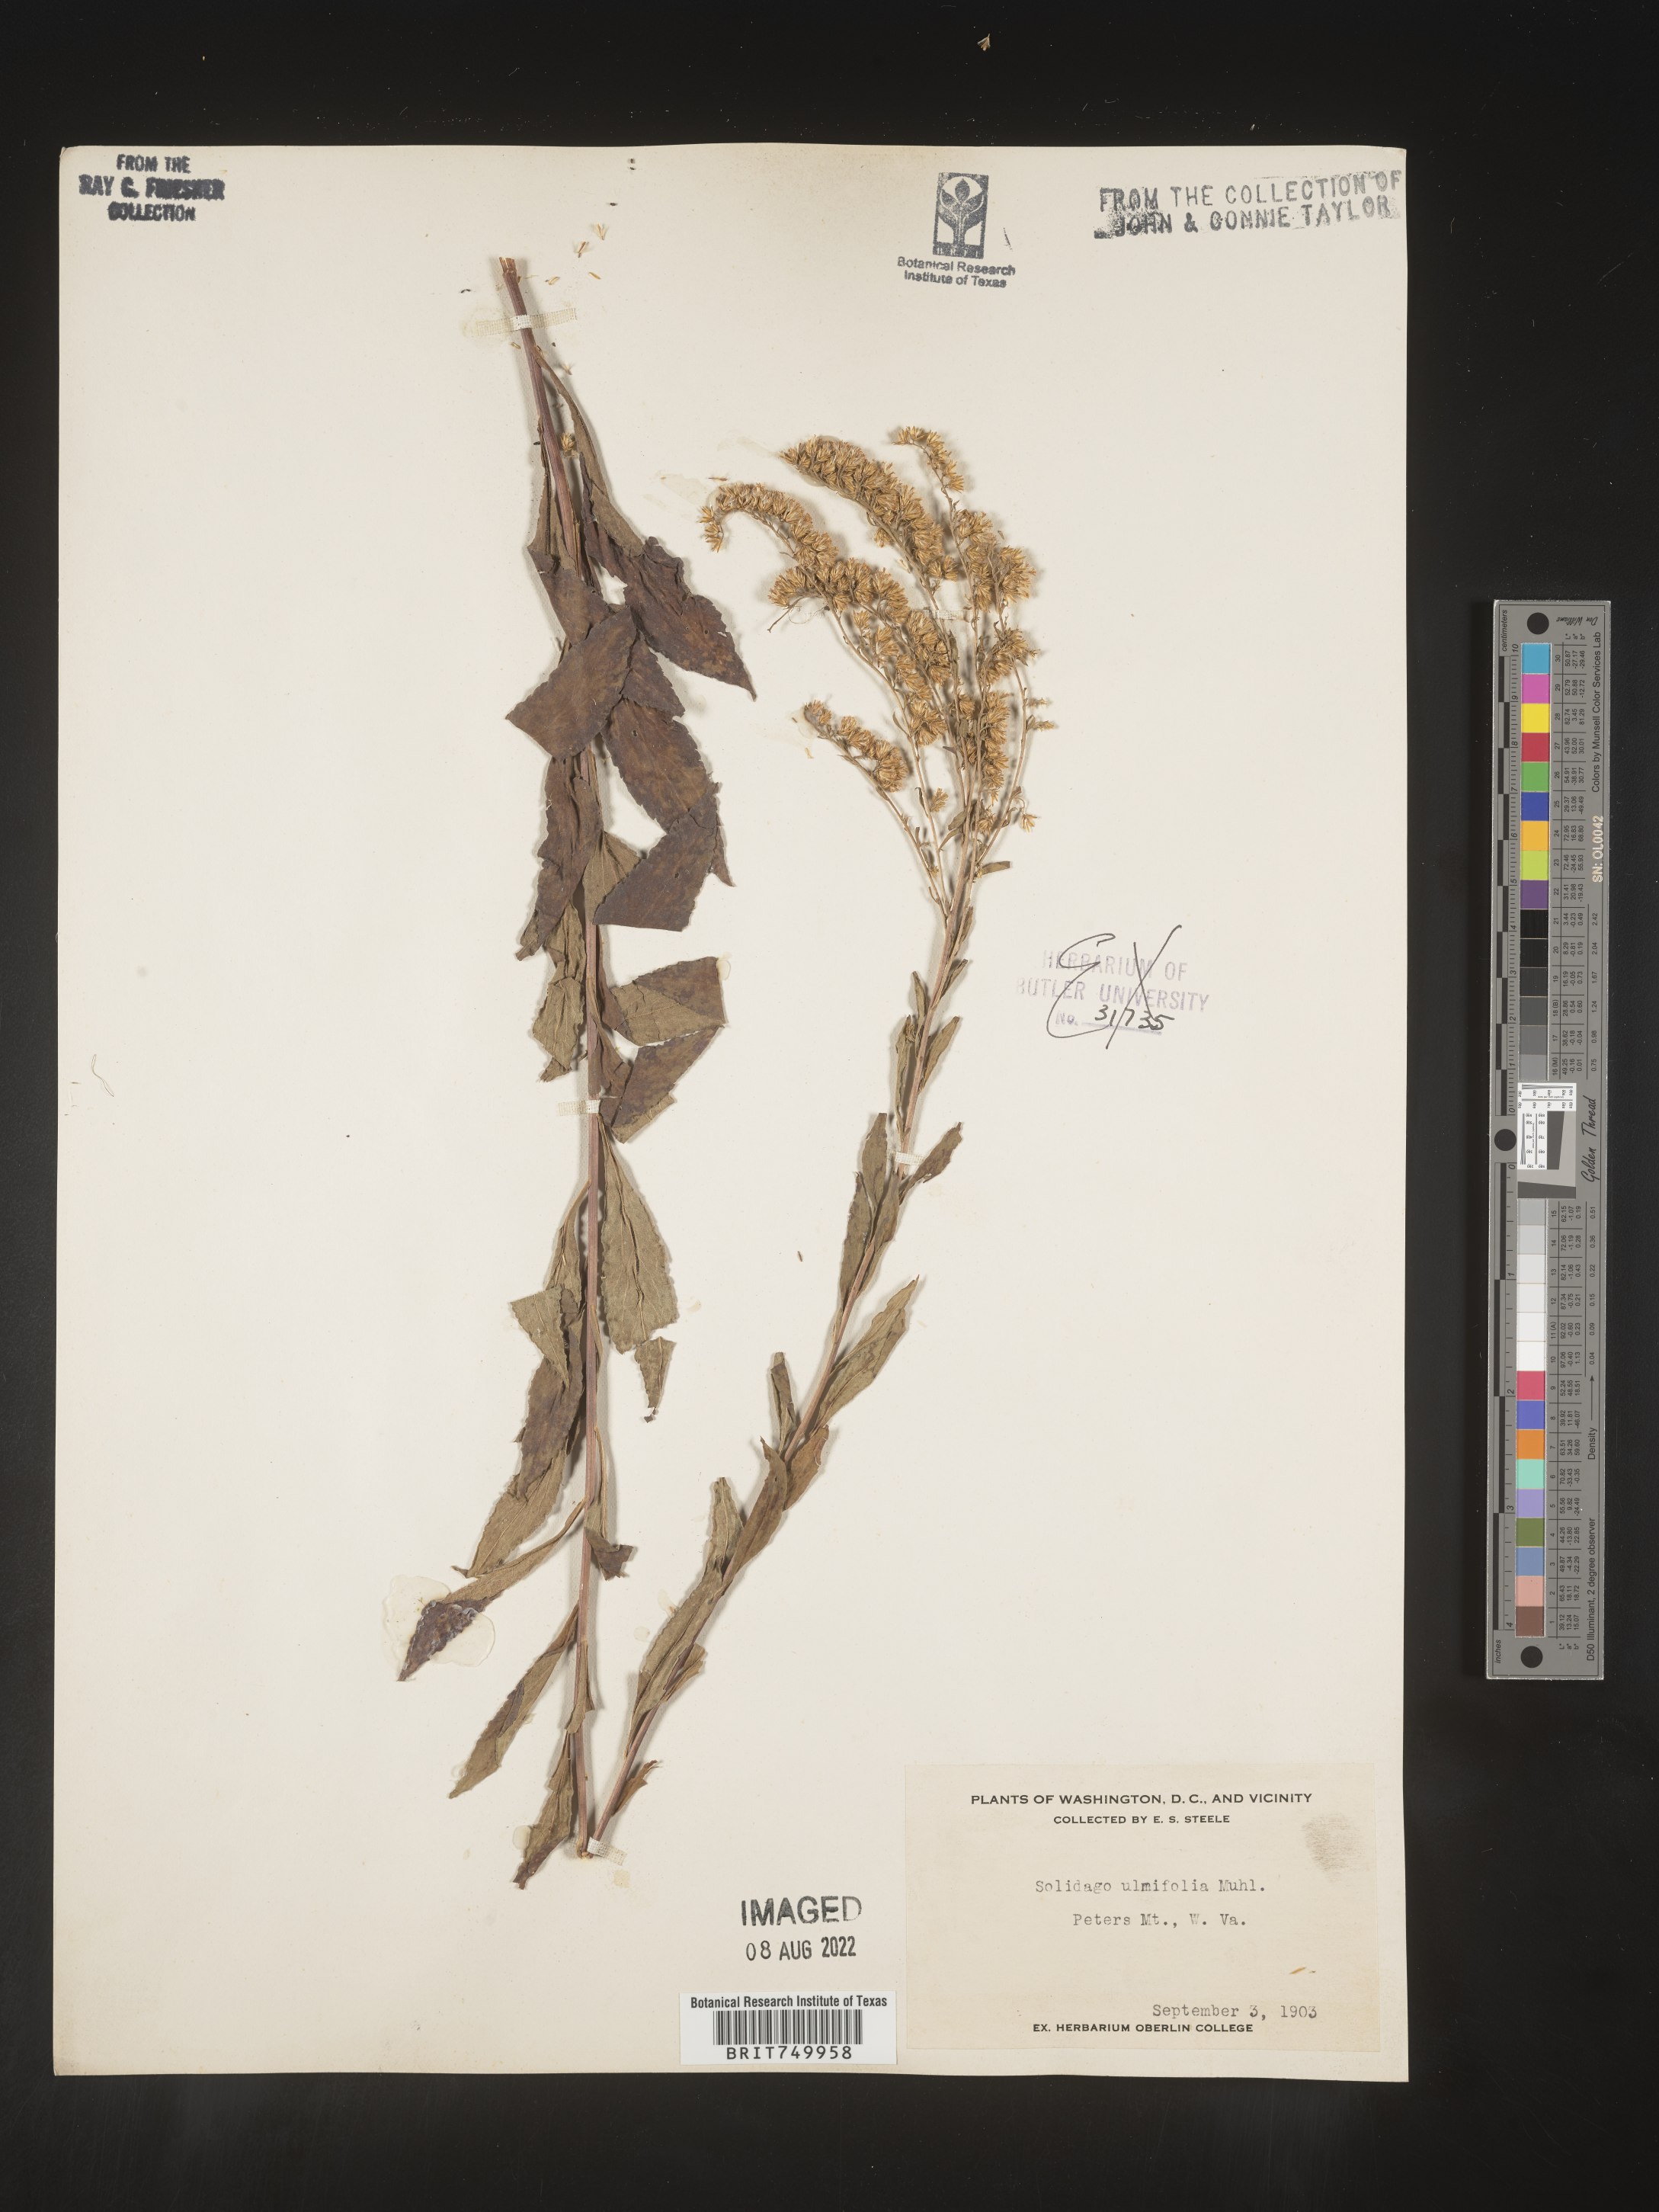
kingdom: Plantae
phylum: Tracheophyta
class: Magnoliopsida
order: Asterales
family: Asteraceae
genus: Solidago
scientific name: Solidago ulmifolia
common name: Elm-leaf goldenrod
